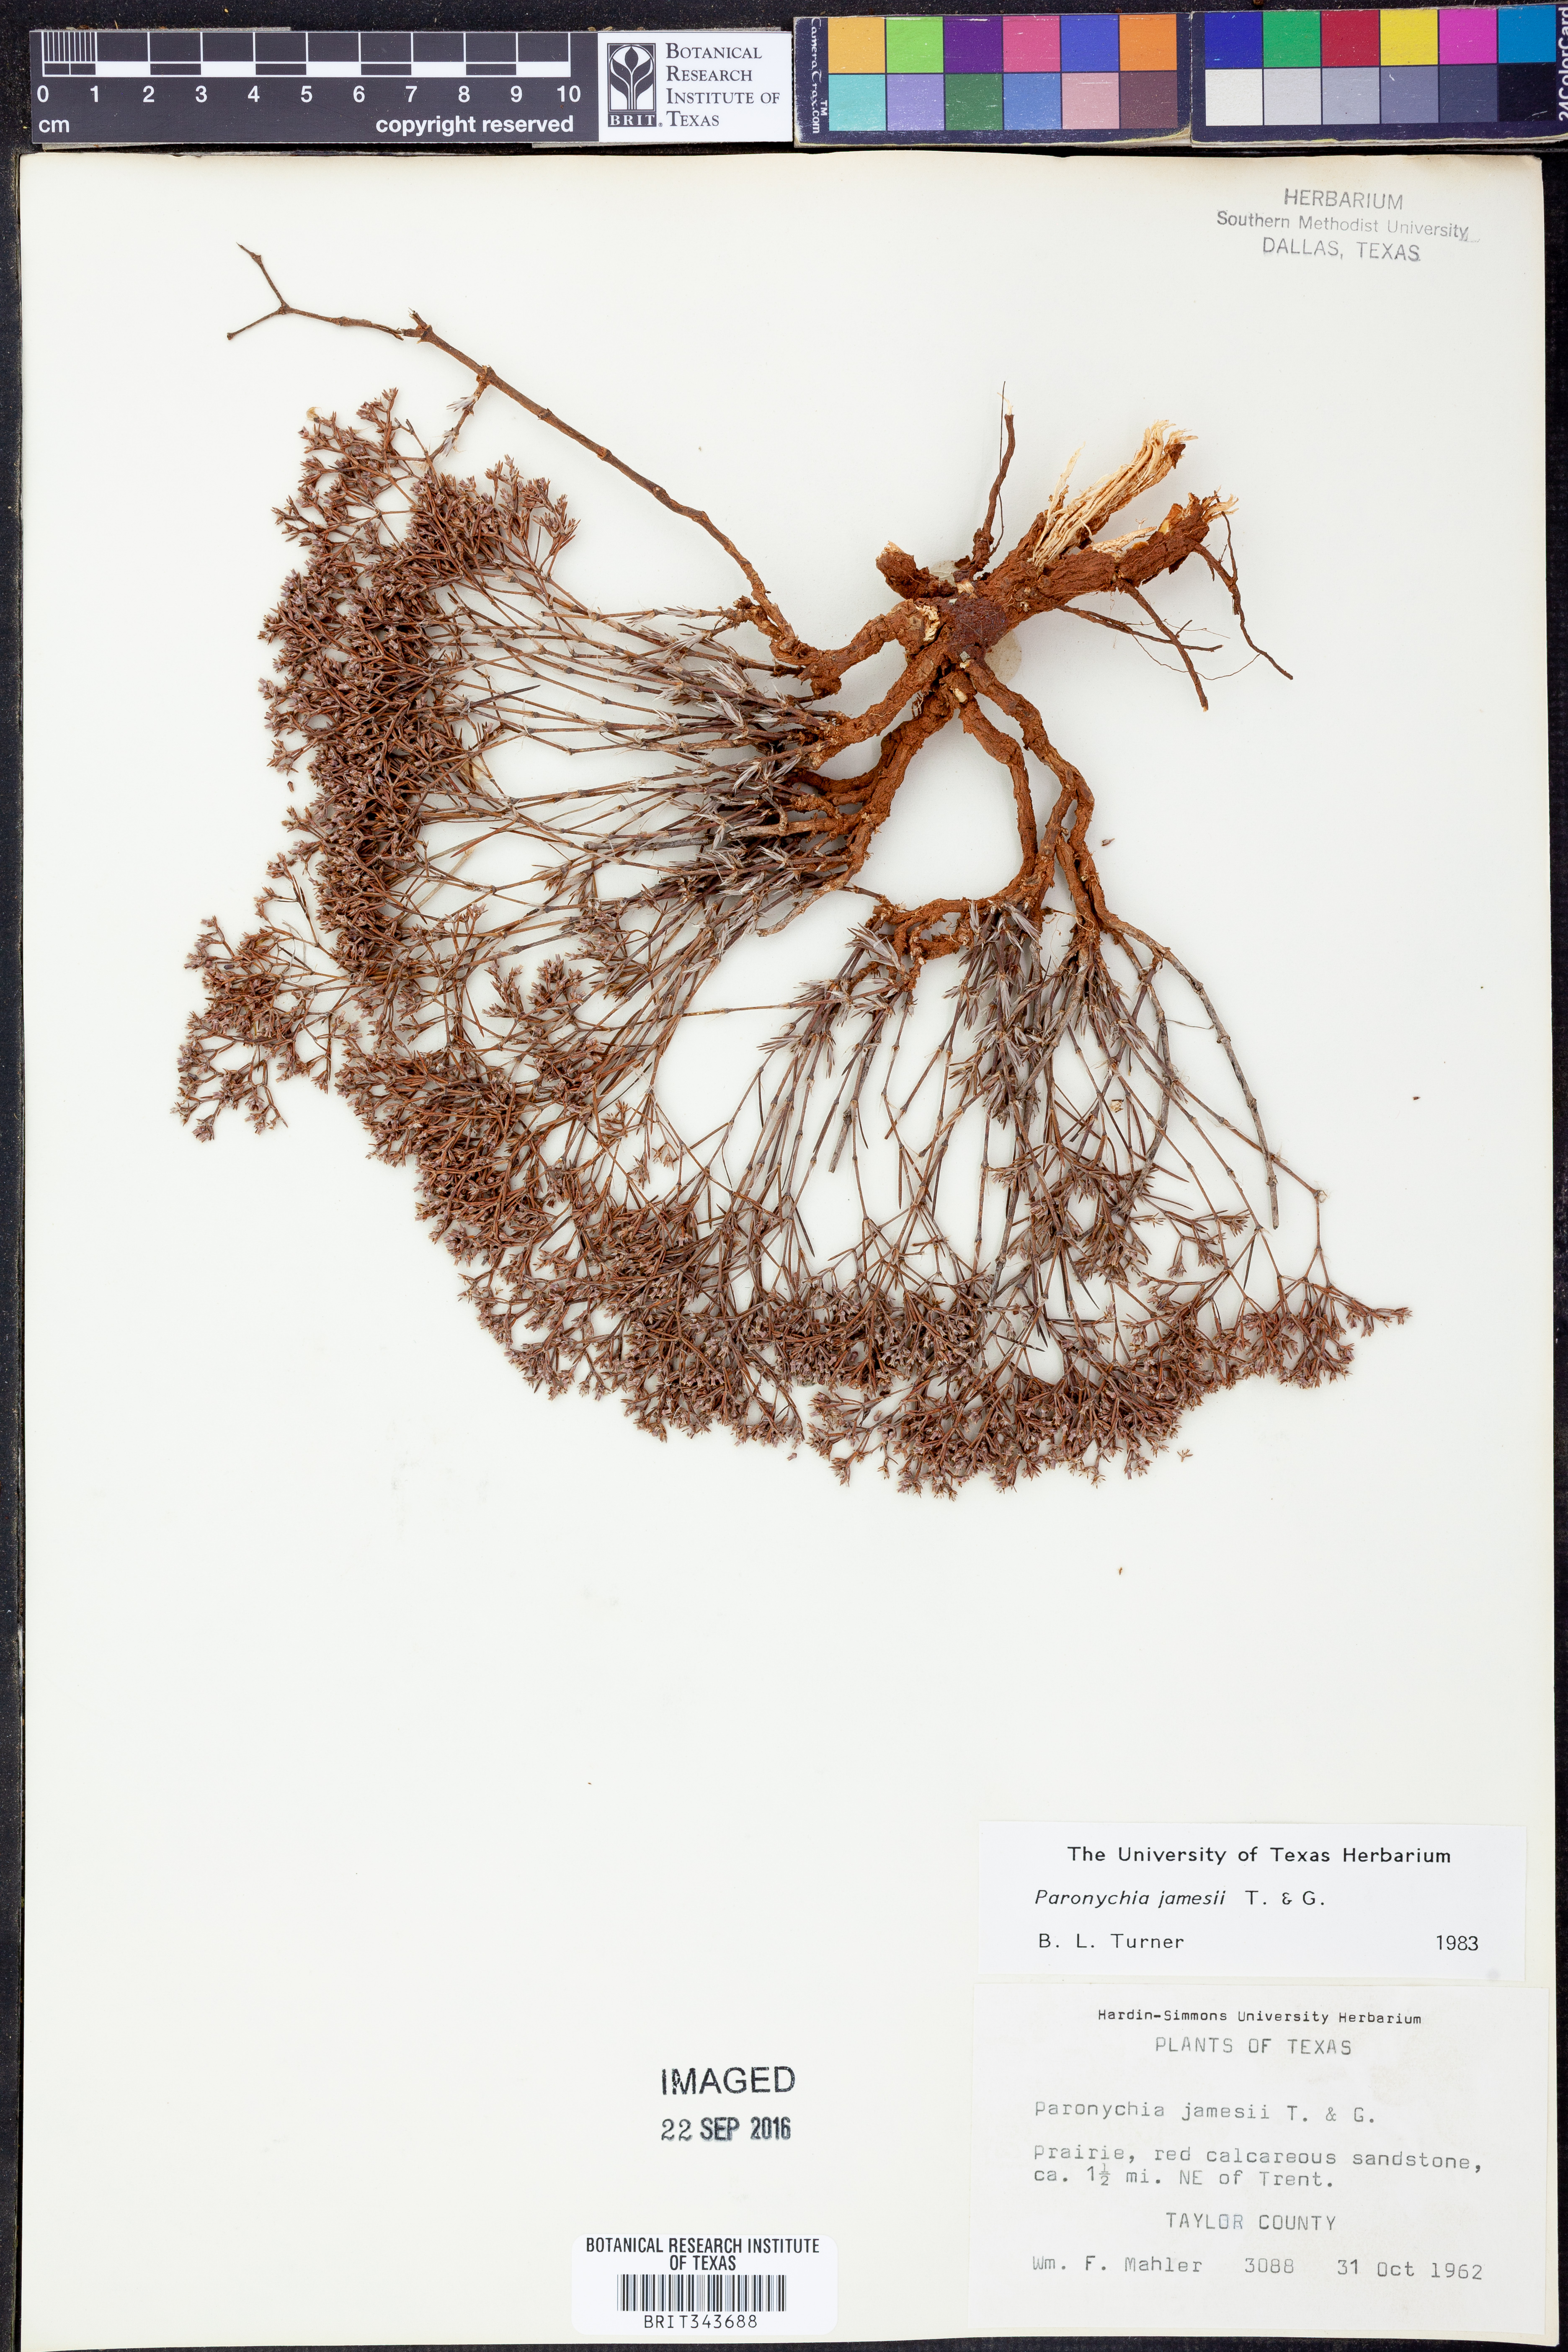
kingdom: Plantae
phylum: Tracheophyta
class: Magnoliopsida
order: Caryophyllales
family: Caryophyllaceae
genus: Paronychia
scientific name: Paronychia jamesii
